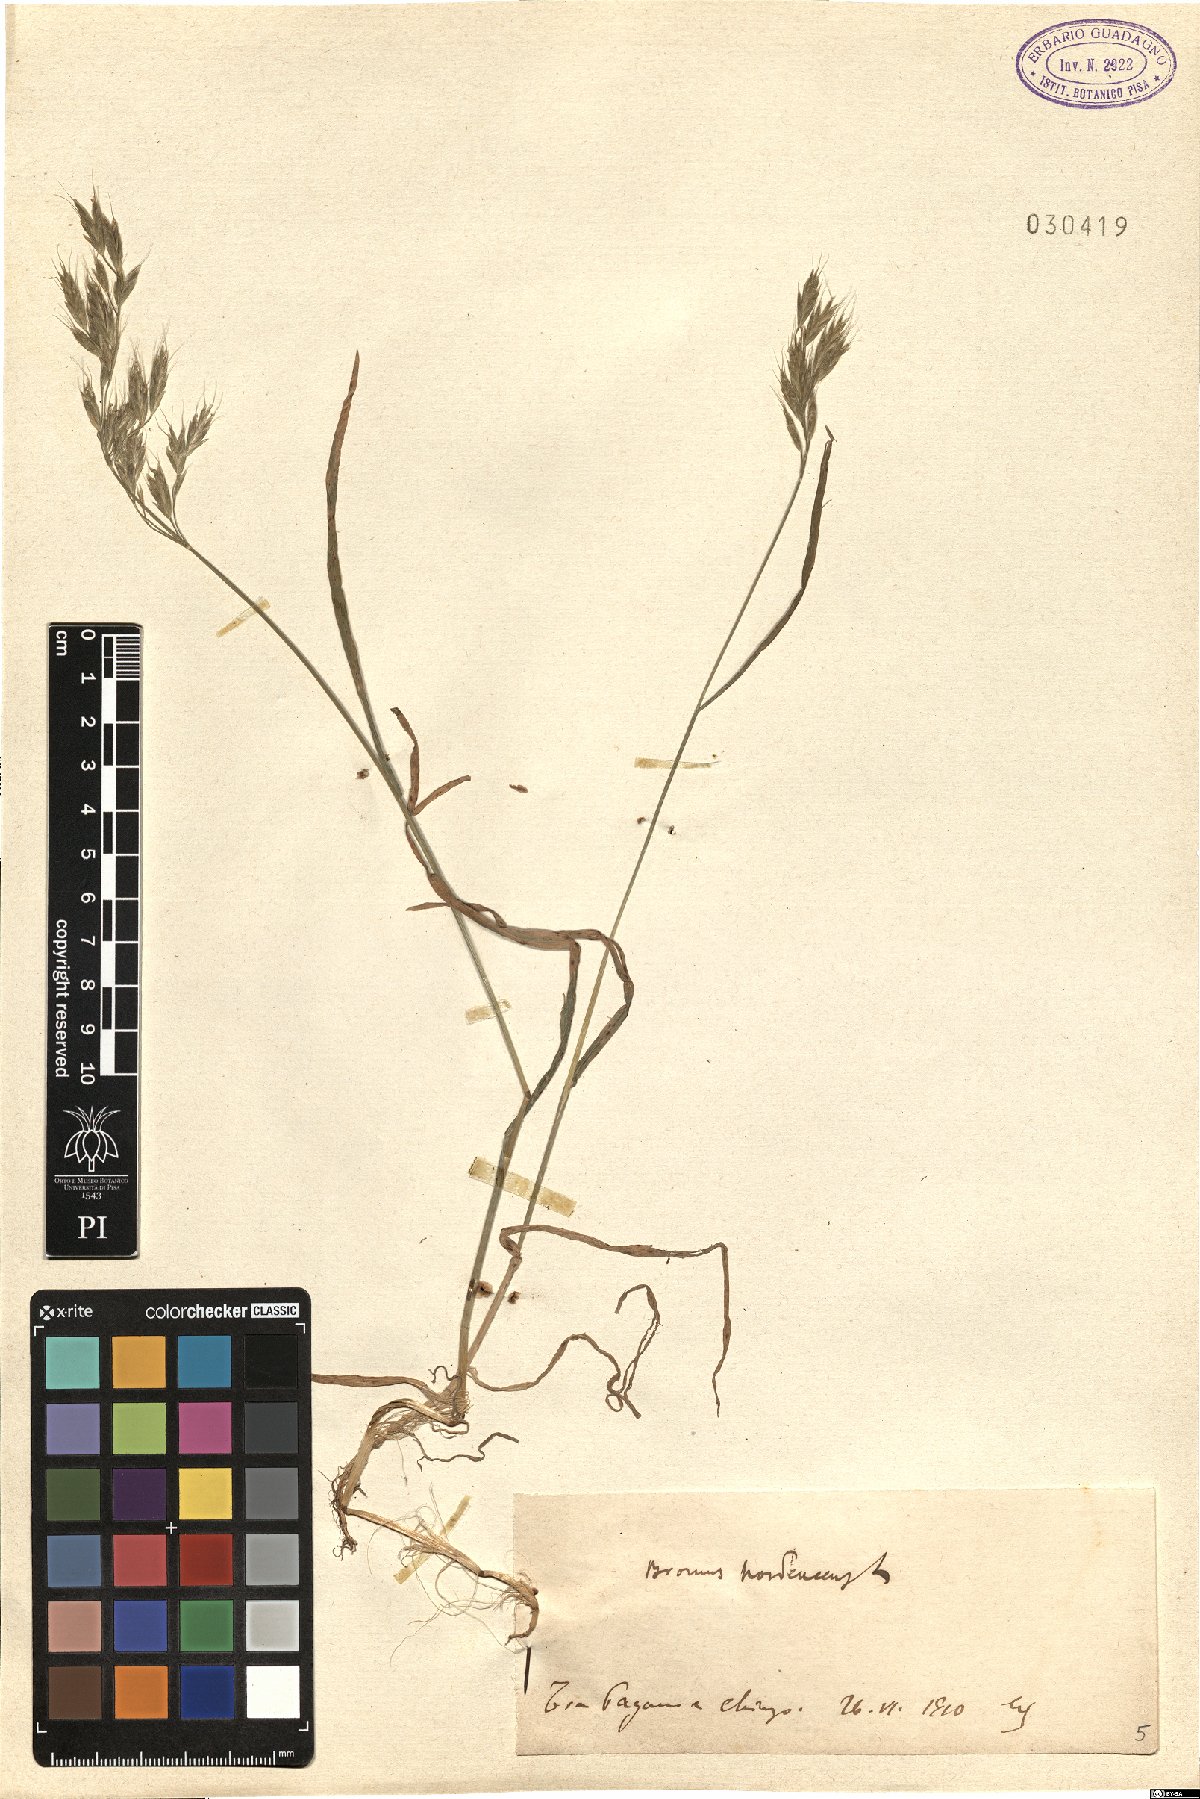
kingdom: Plantae
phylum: Tracheophyta
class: Liliopsida
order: Poales
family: Poaceae
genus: Bromus
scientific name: Bromus hordeaceus
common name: Soft brome
